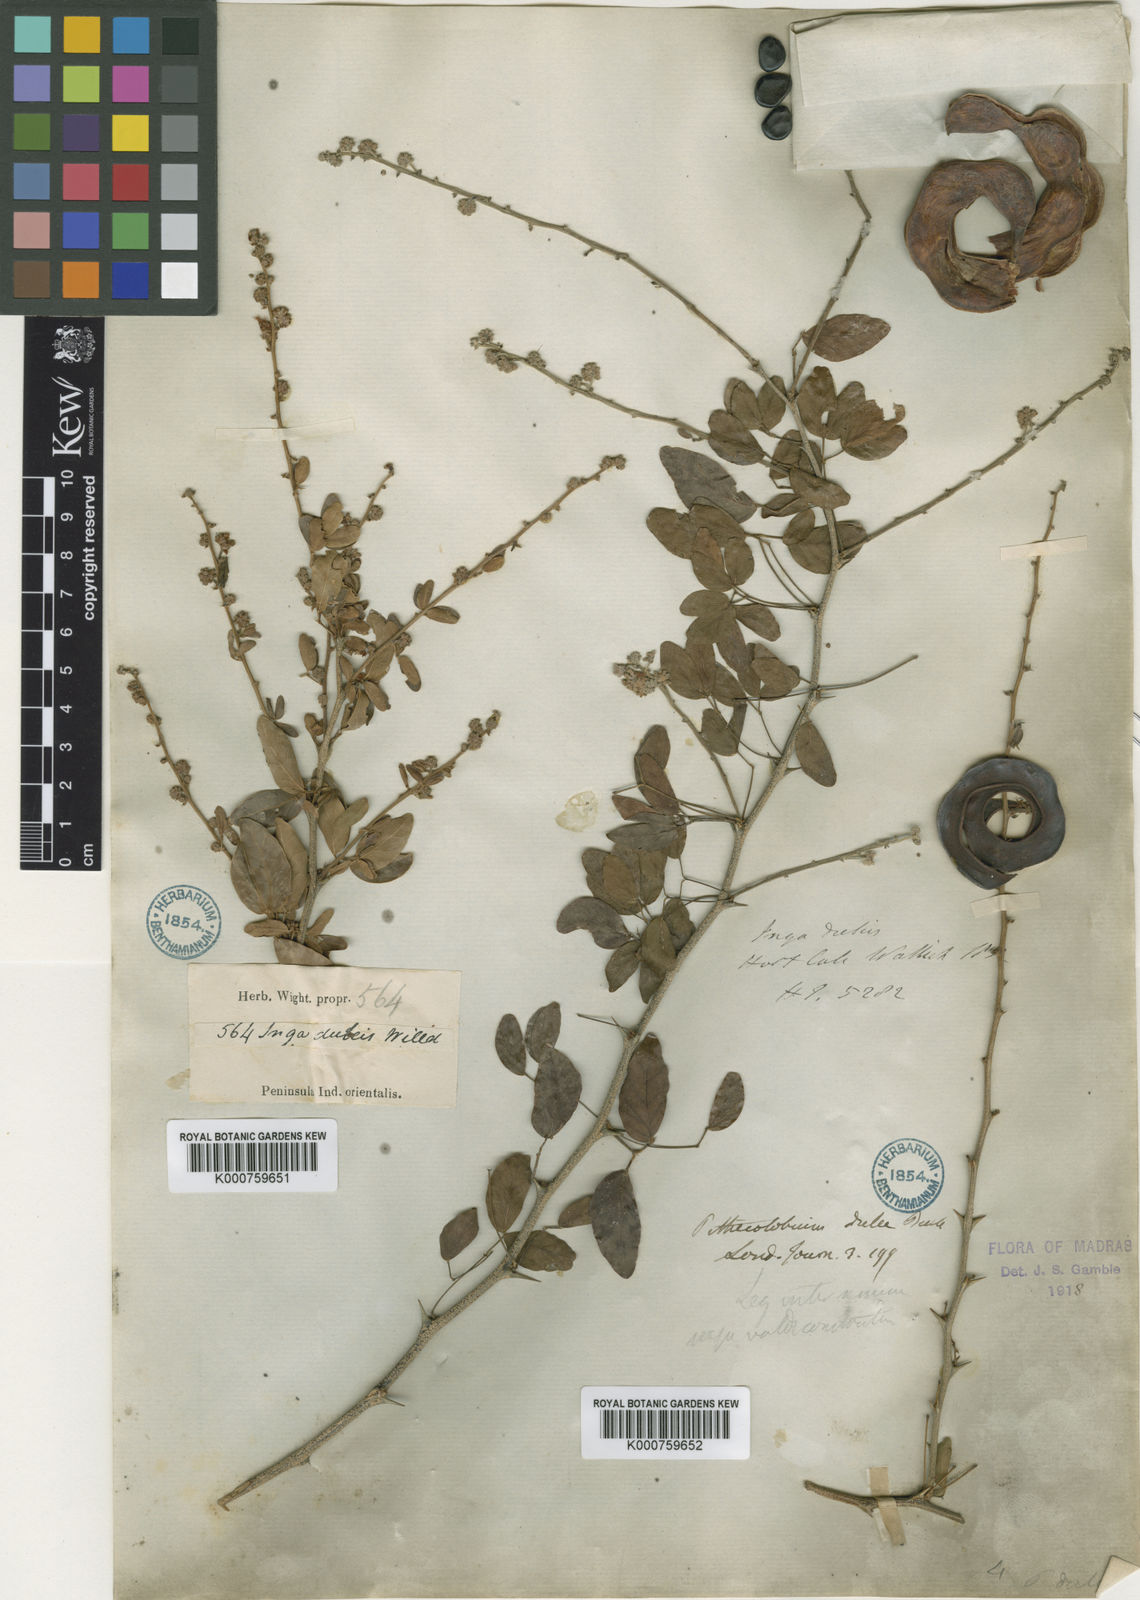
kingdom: Plantae
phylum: Tracheophyta
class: Magnoliopsida
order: Fabales
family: Fabaceae
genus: Pithecellobium
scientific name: Pithecellobium dulce
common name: Monkeypod
